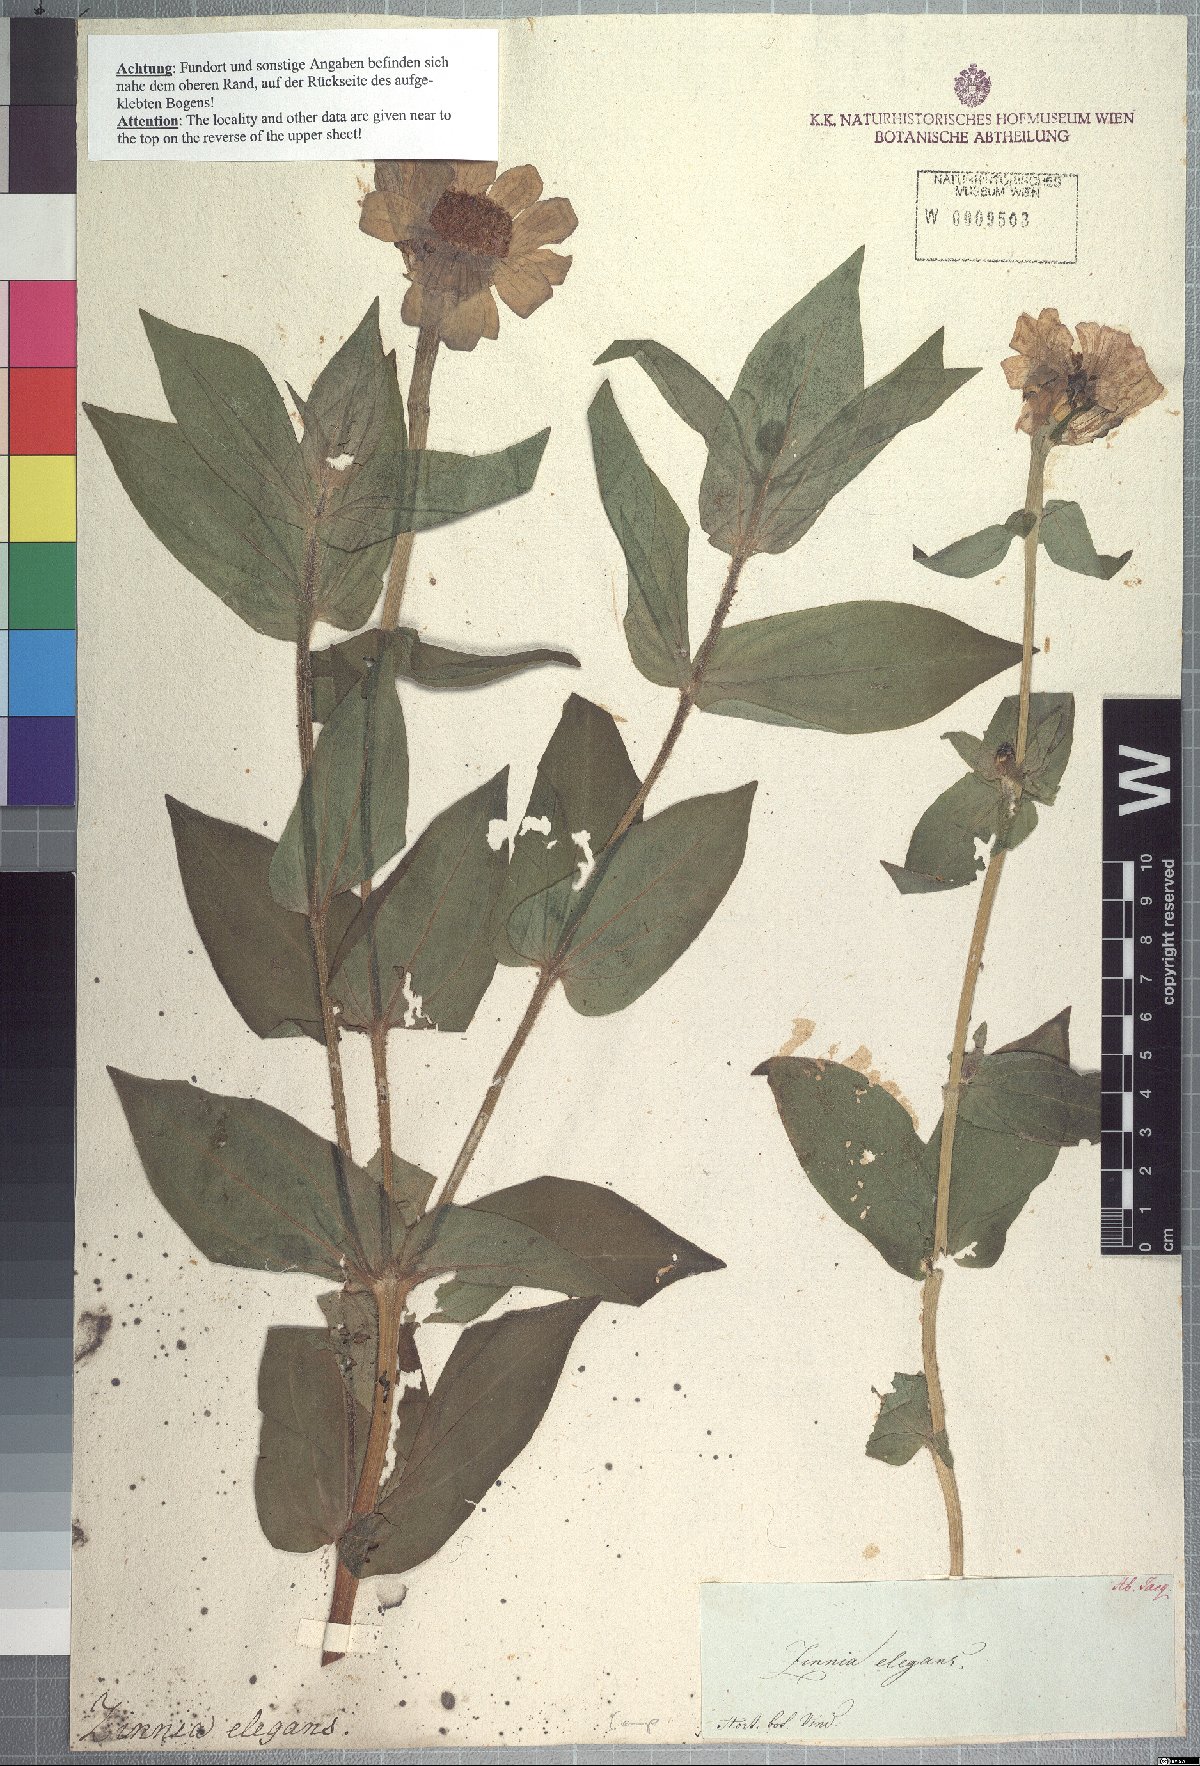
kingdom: Plantae
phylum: Tracheophyta
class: Magnoliopsida
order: Asterales
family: Asteraceae
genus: Zinnia
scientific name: Zinnia elegans
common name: Youth-and-age
